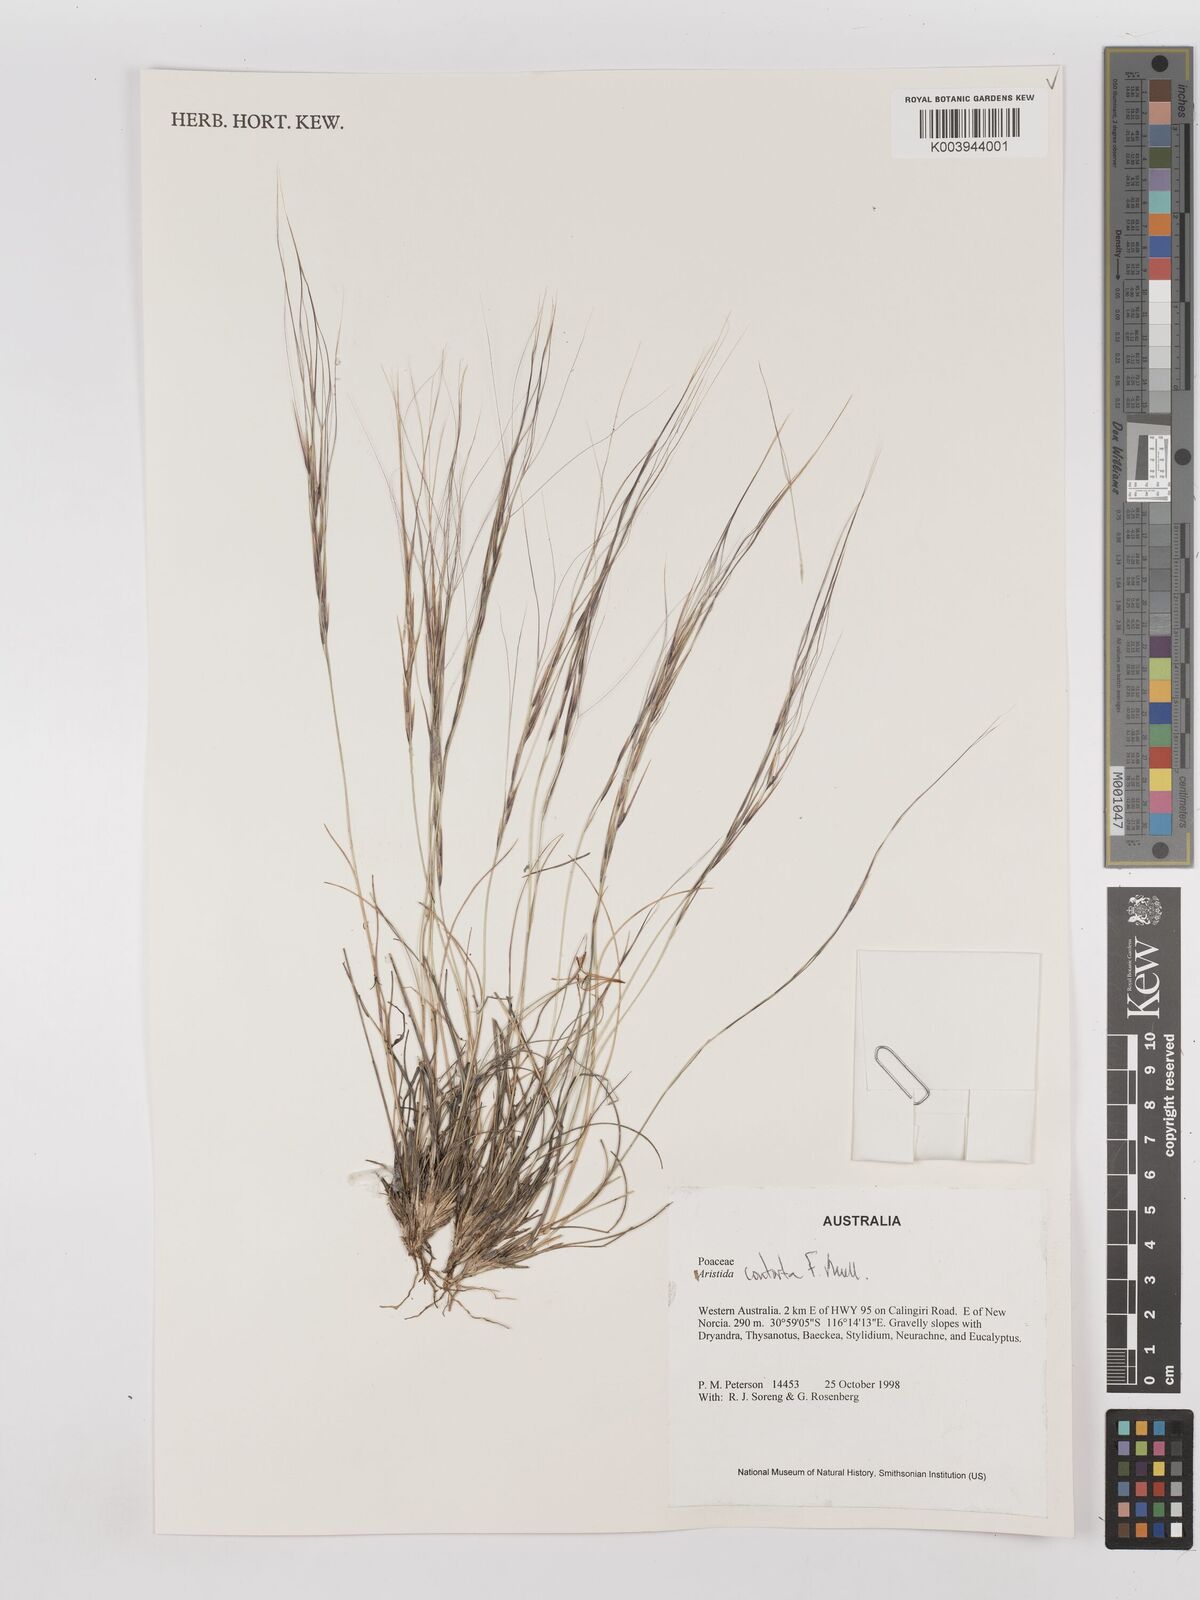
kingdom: Plantae
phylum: Tracheophyta
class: Liliopsida
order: Poales
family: Poaceae
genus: Aristida
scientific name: Aristida contorta
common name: Bunch kerosene grass
